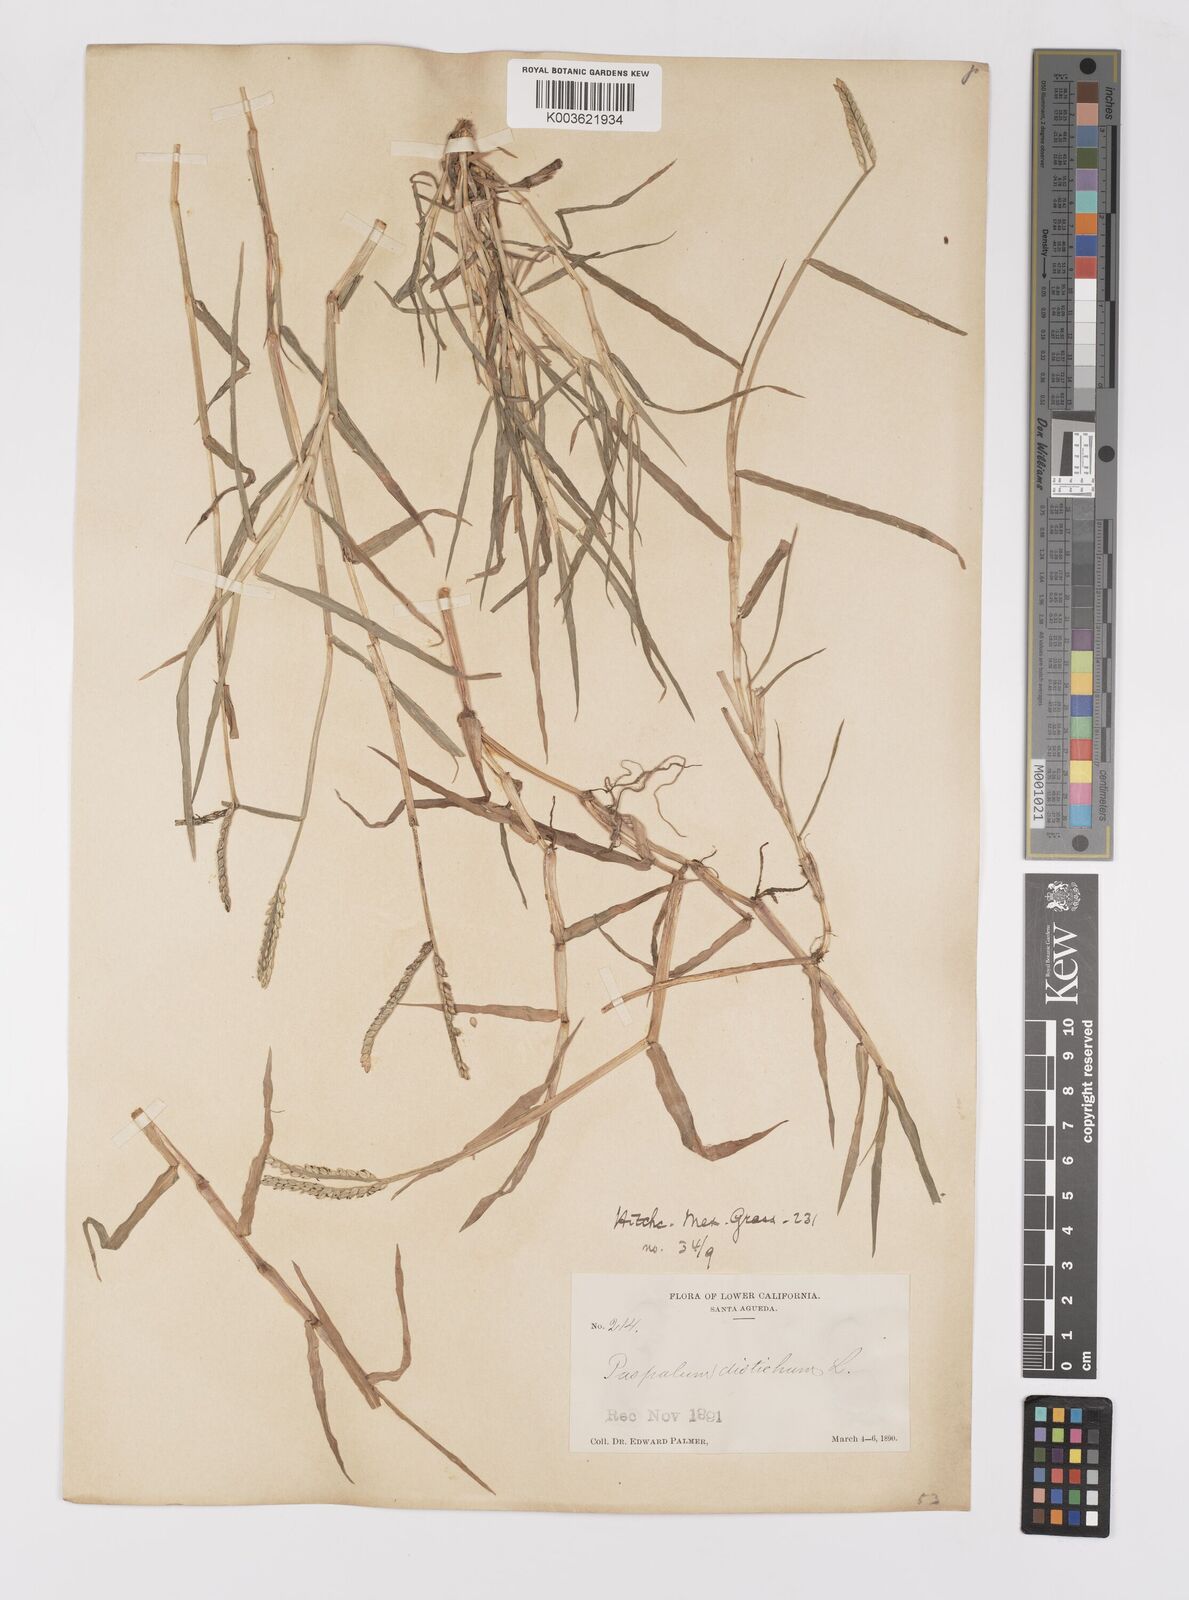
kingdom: Plantae
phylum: Tracheophyta
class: Liliopsida
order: Poales
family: Poaceae
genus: Paspalum
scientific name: Paspalum distichum
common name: Knotgrass
